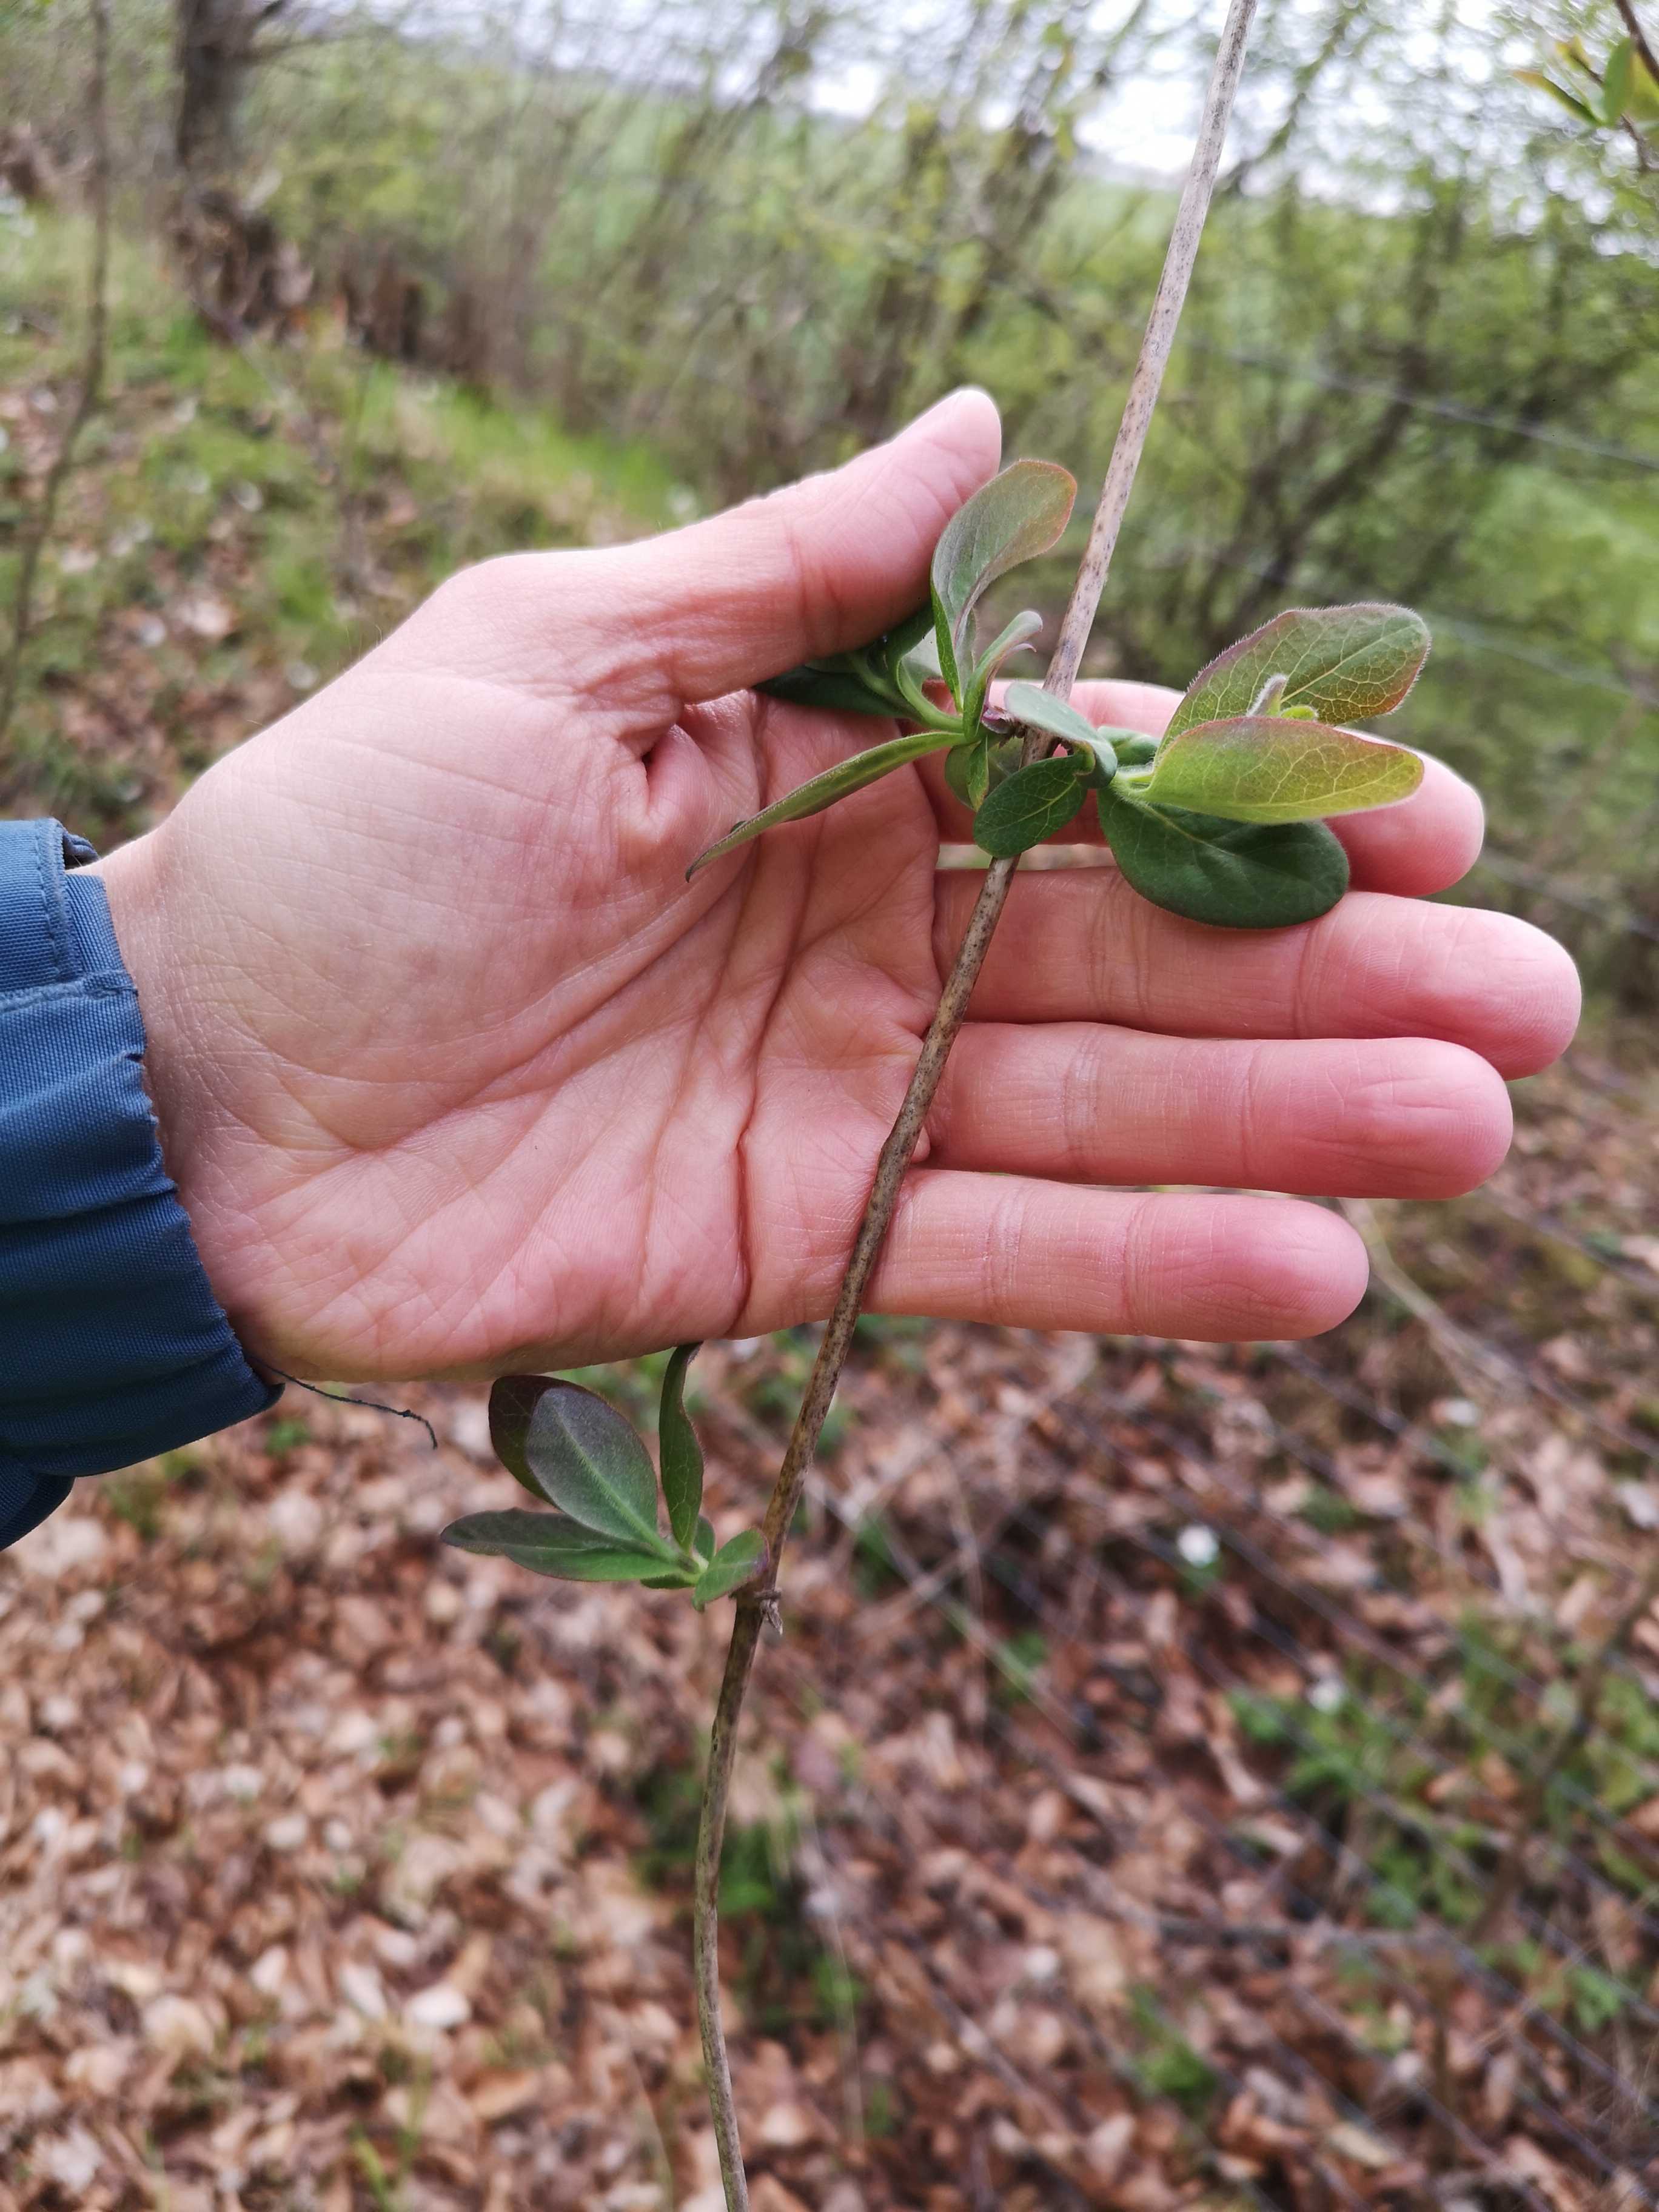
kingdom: Fungi
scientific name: Fungi
